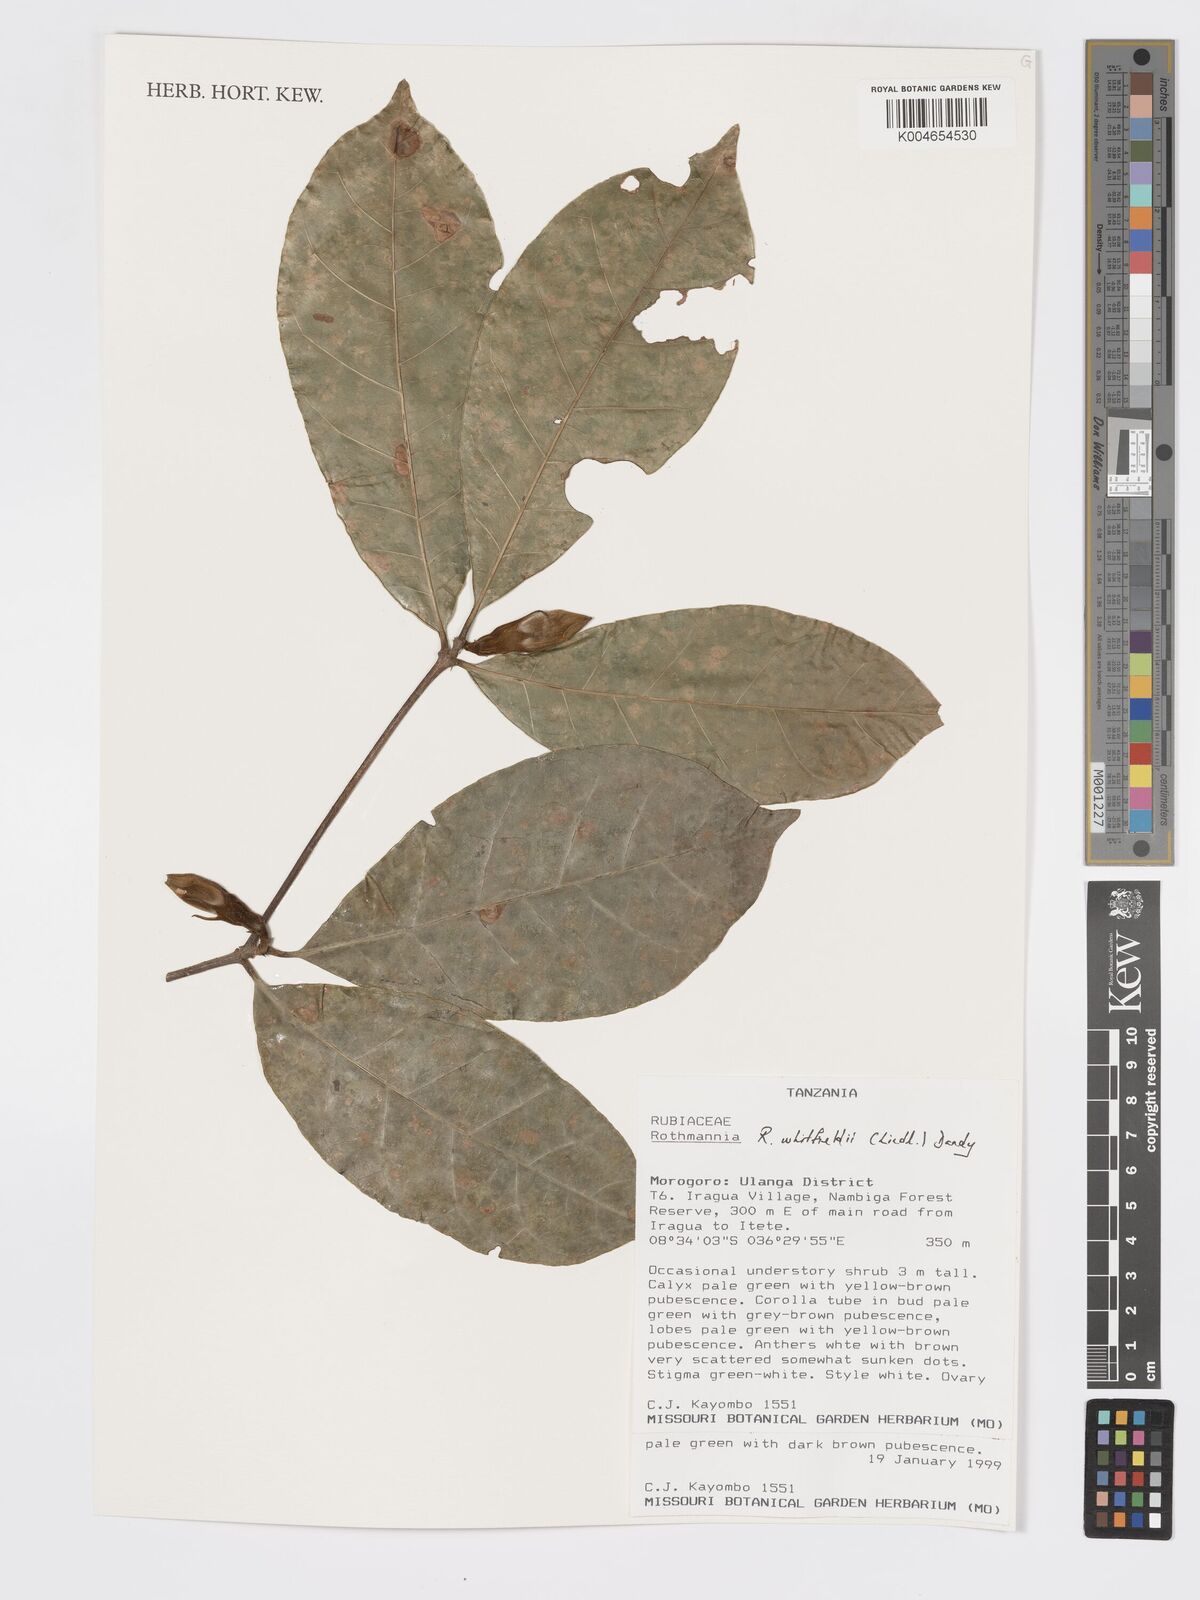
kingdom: Plantae
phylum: Tracheophyta
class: Magnoliopsida
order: Gentianales
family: Rubiaceae
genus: Rothmannia
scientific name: Rothmannia whitfieldii
